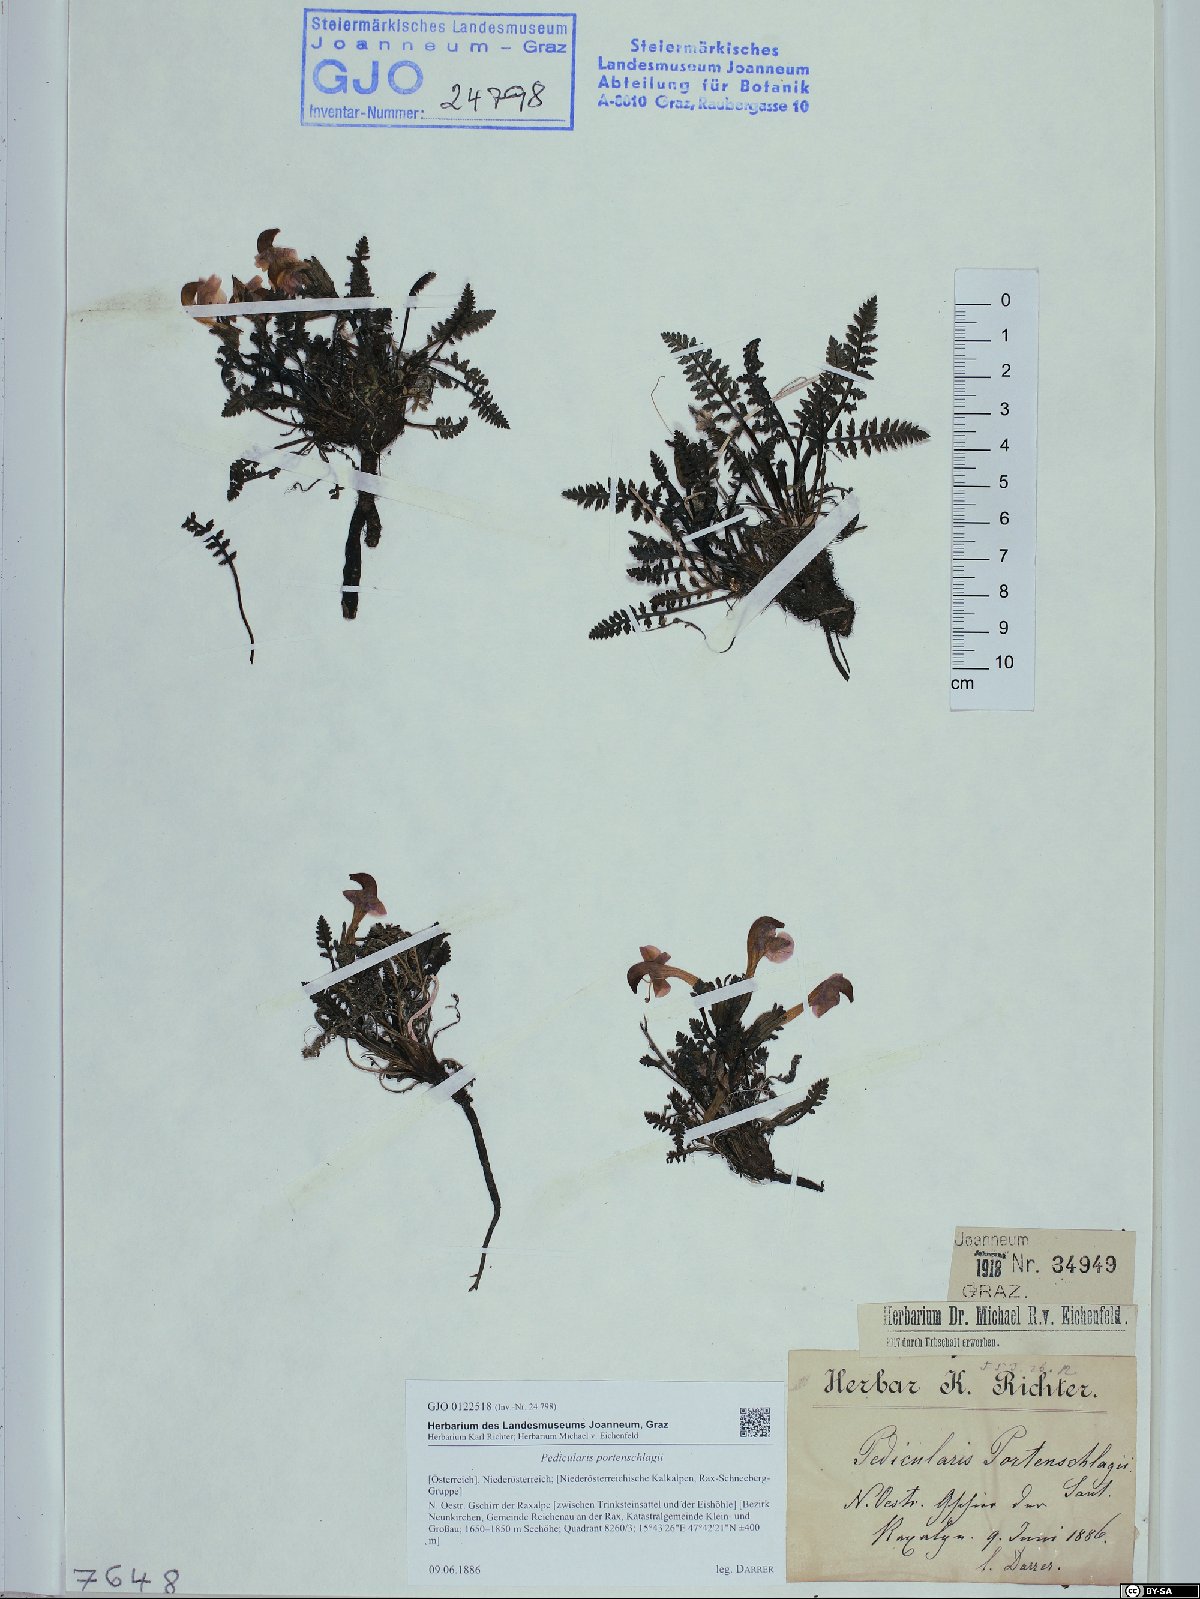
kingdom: Plantae
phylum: Tracheophyta
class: Magnoliopsida
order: Lamiales
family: Orobanchaceae
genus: Pedicularis
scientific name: Pedicularis portenschlagii
